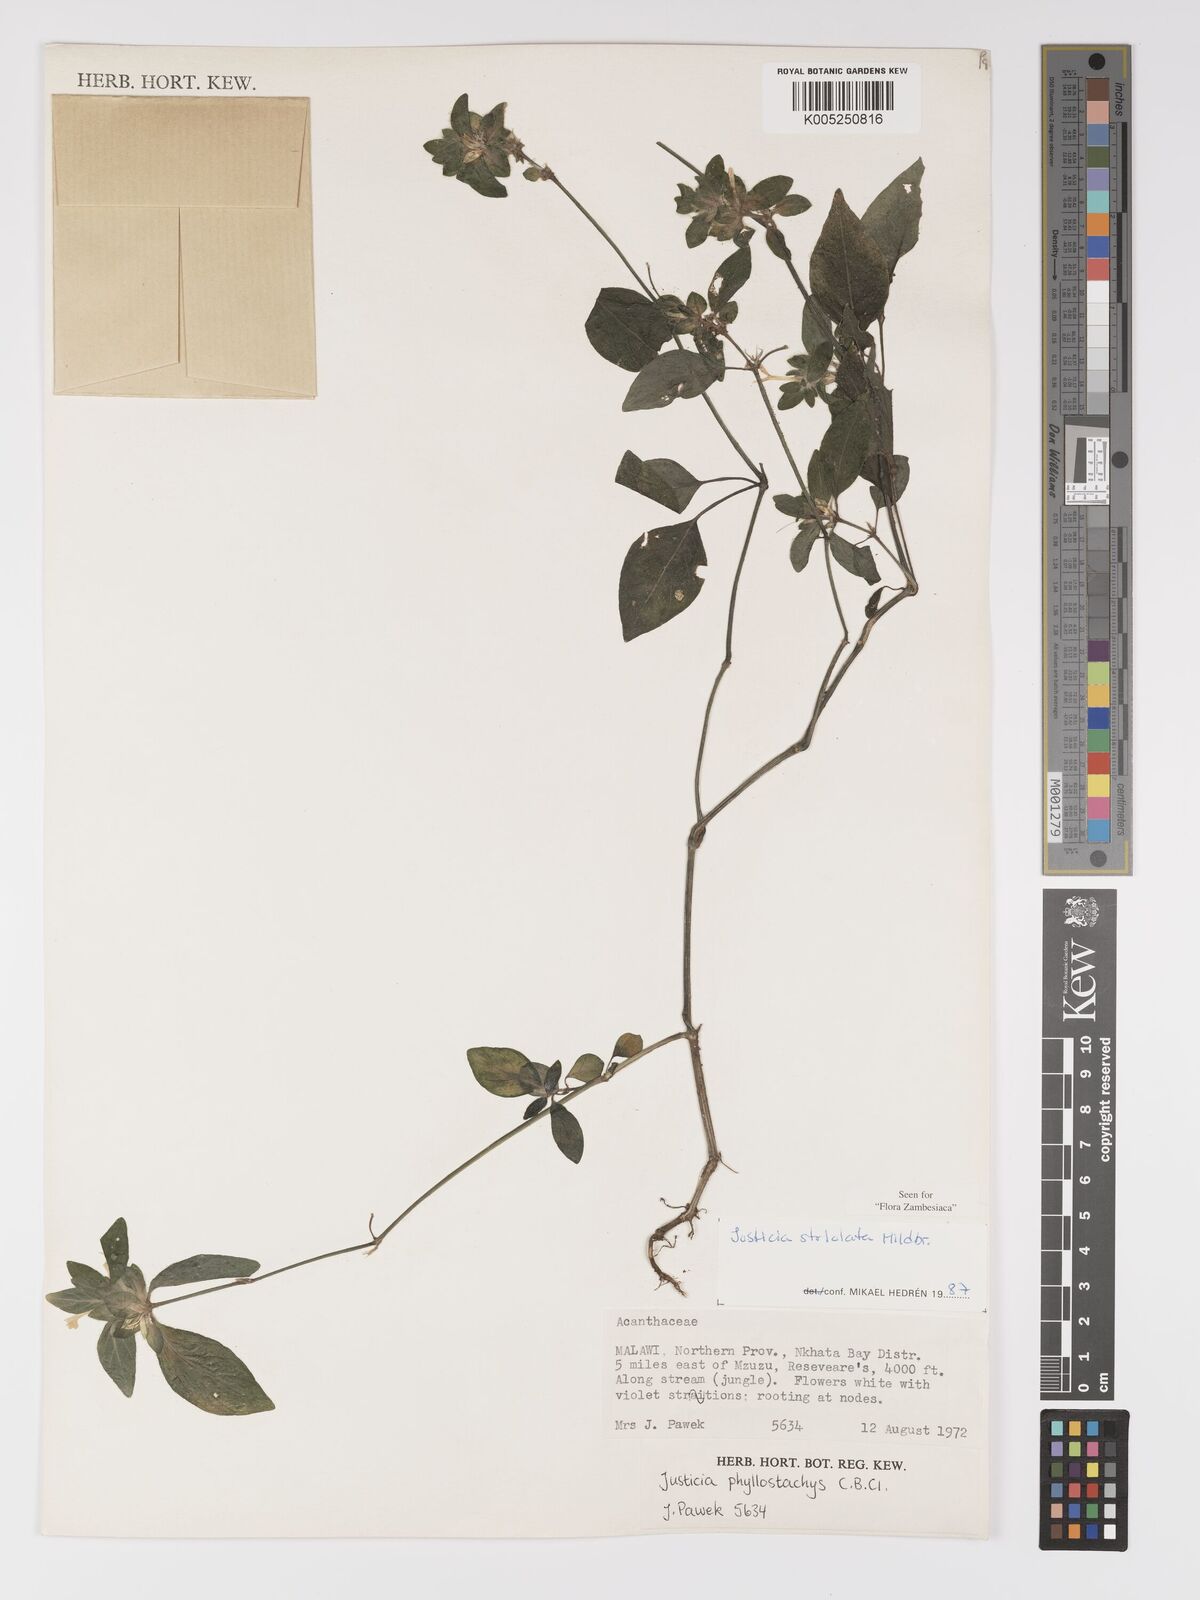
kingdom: Plantae
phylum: Tracheophyta
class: Magnoliopsida
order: Lamiales
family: Acanthaceae
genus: Justicia
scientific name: Justicia striolata
